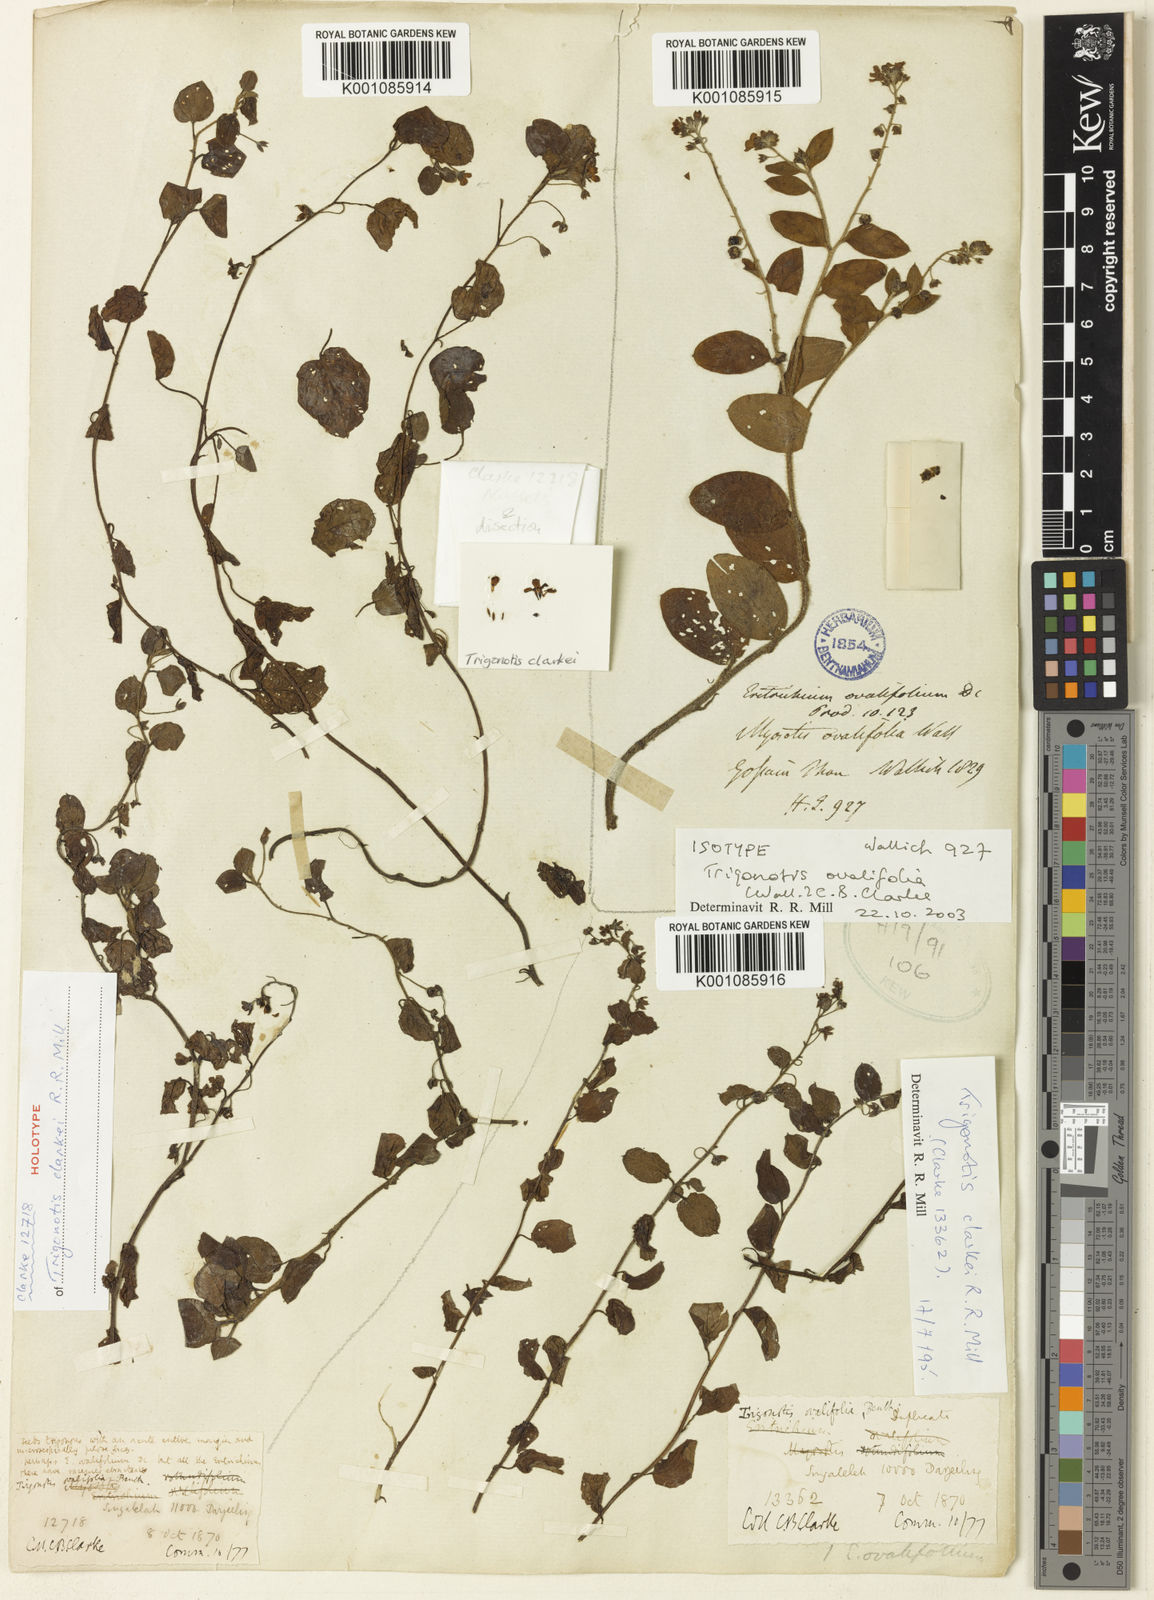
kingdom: Plantae
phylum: Tracheophyta
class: Magnoliopsida
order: Boraginales
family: Boraginaceae
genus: Trigonotis
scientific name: Trigonotis clarkei
